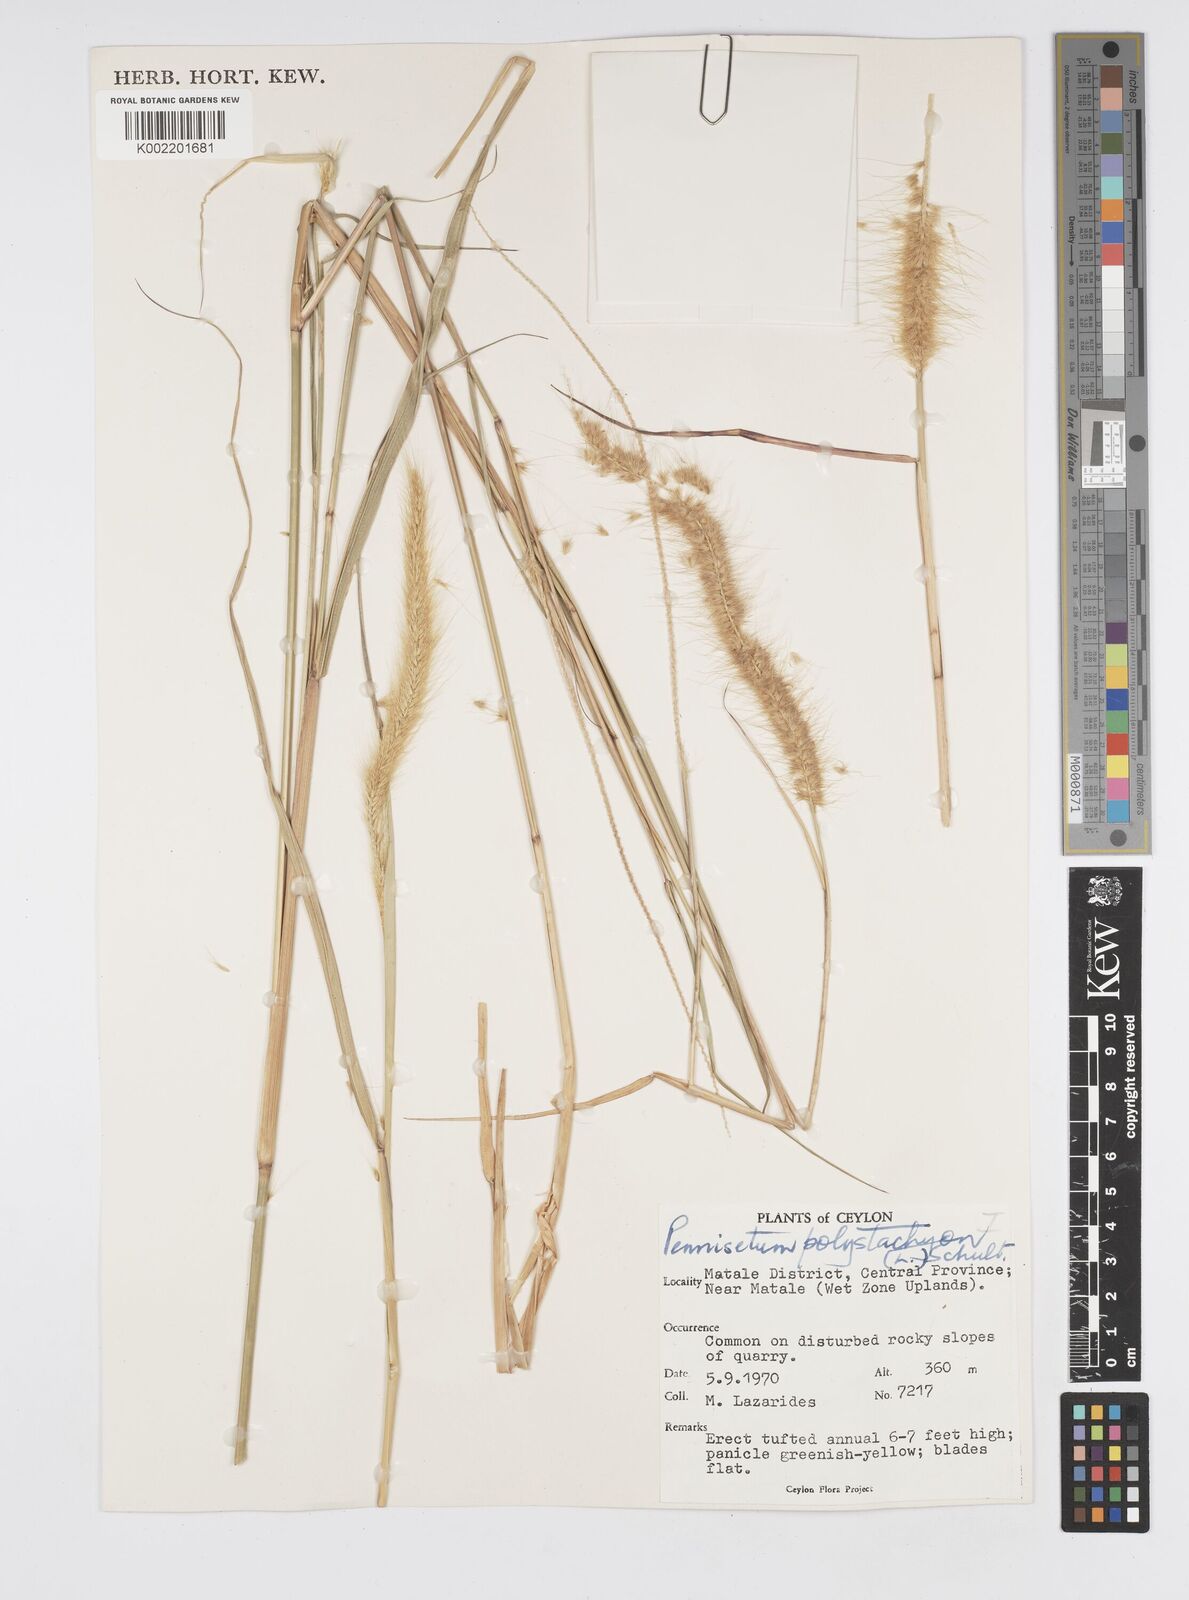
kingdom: Plantae
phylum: Tracheophyta
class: Liliopsida
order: Poales
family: Poaceae
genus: Setaria
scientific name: Setaria parviflora
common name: Knotroot bristle-grass
